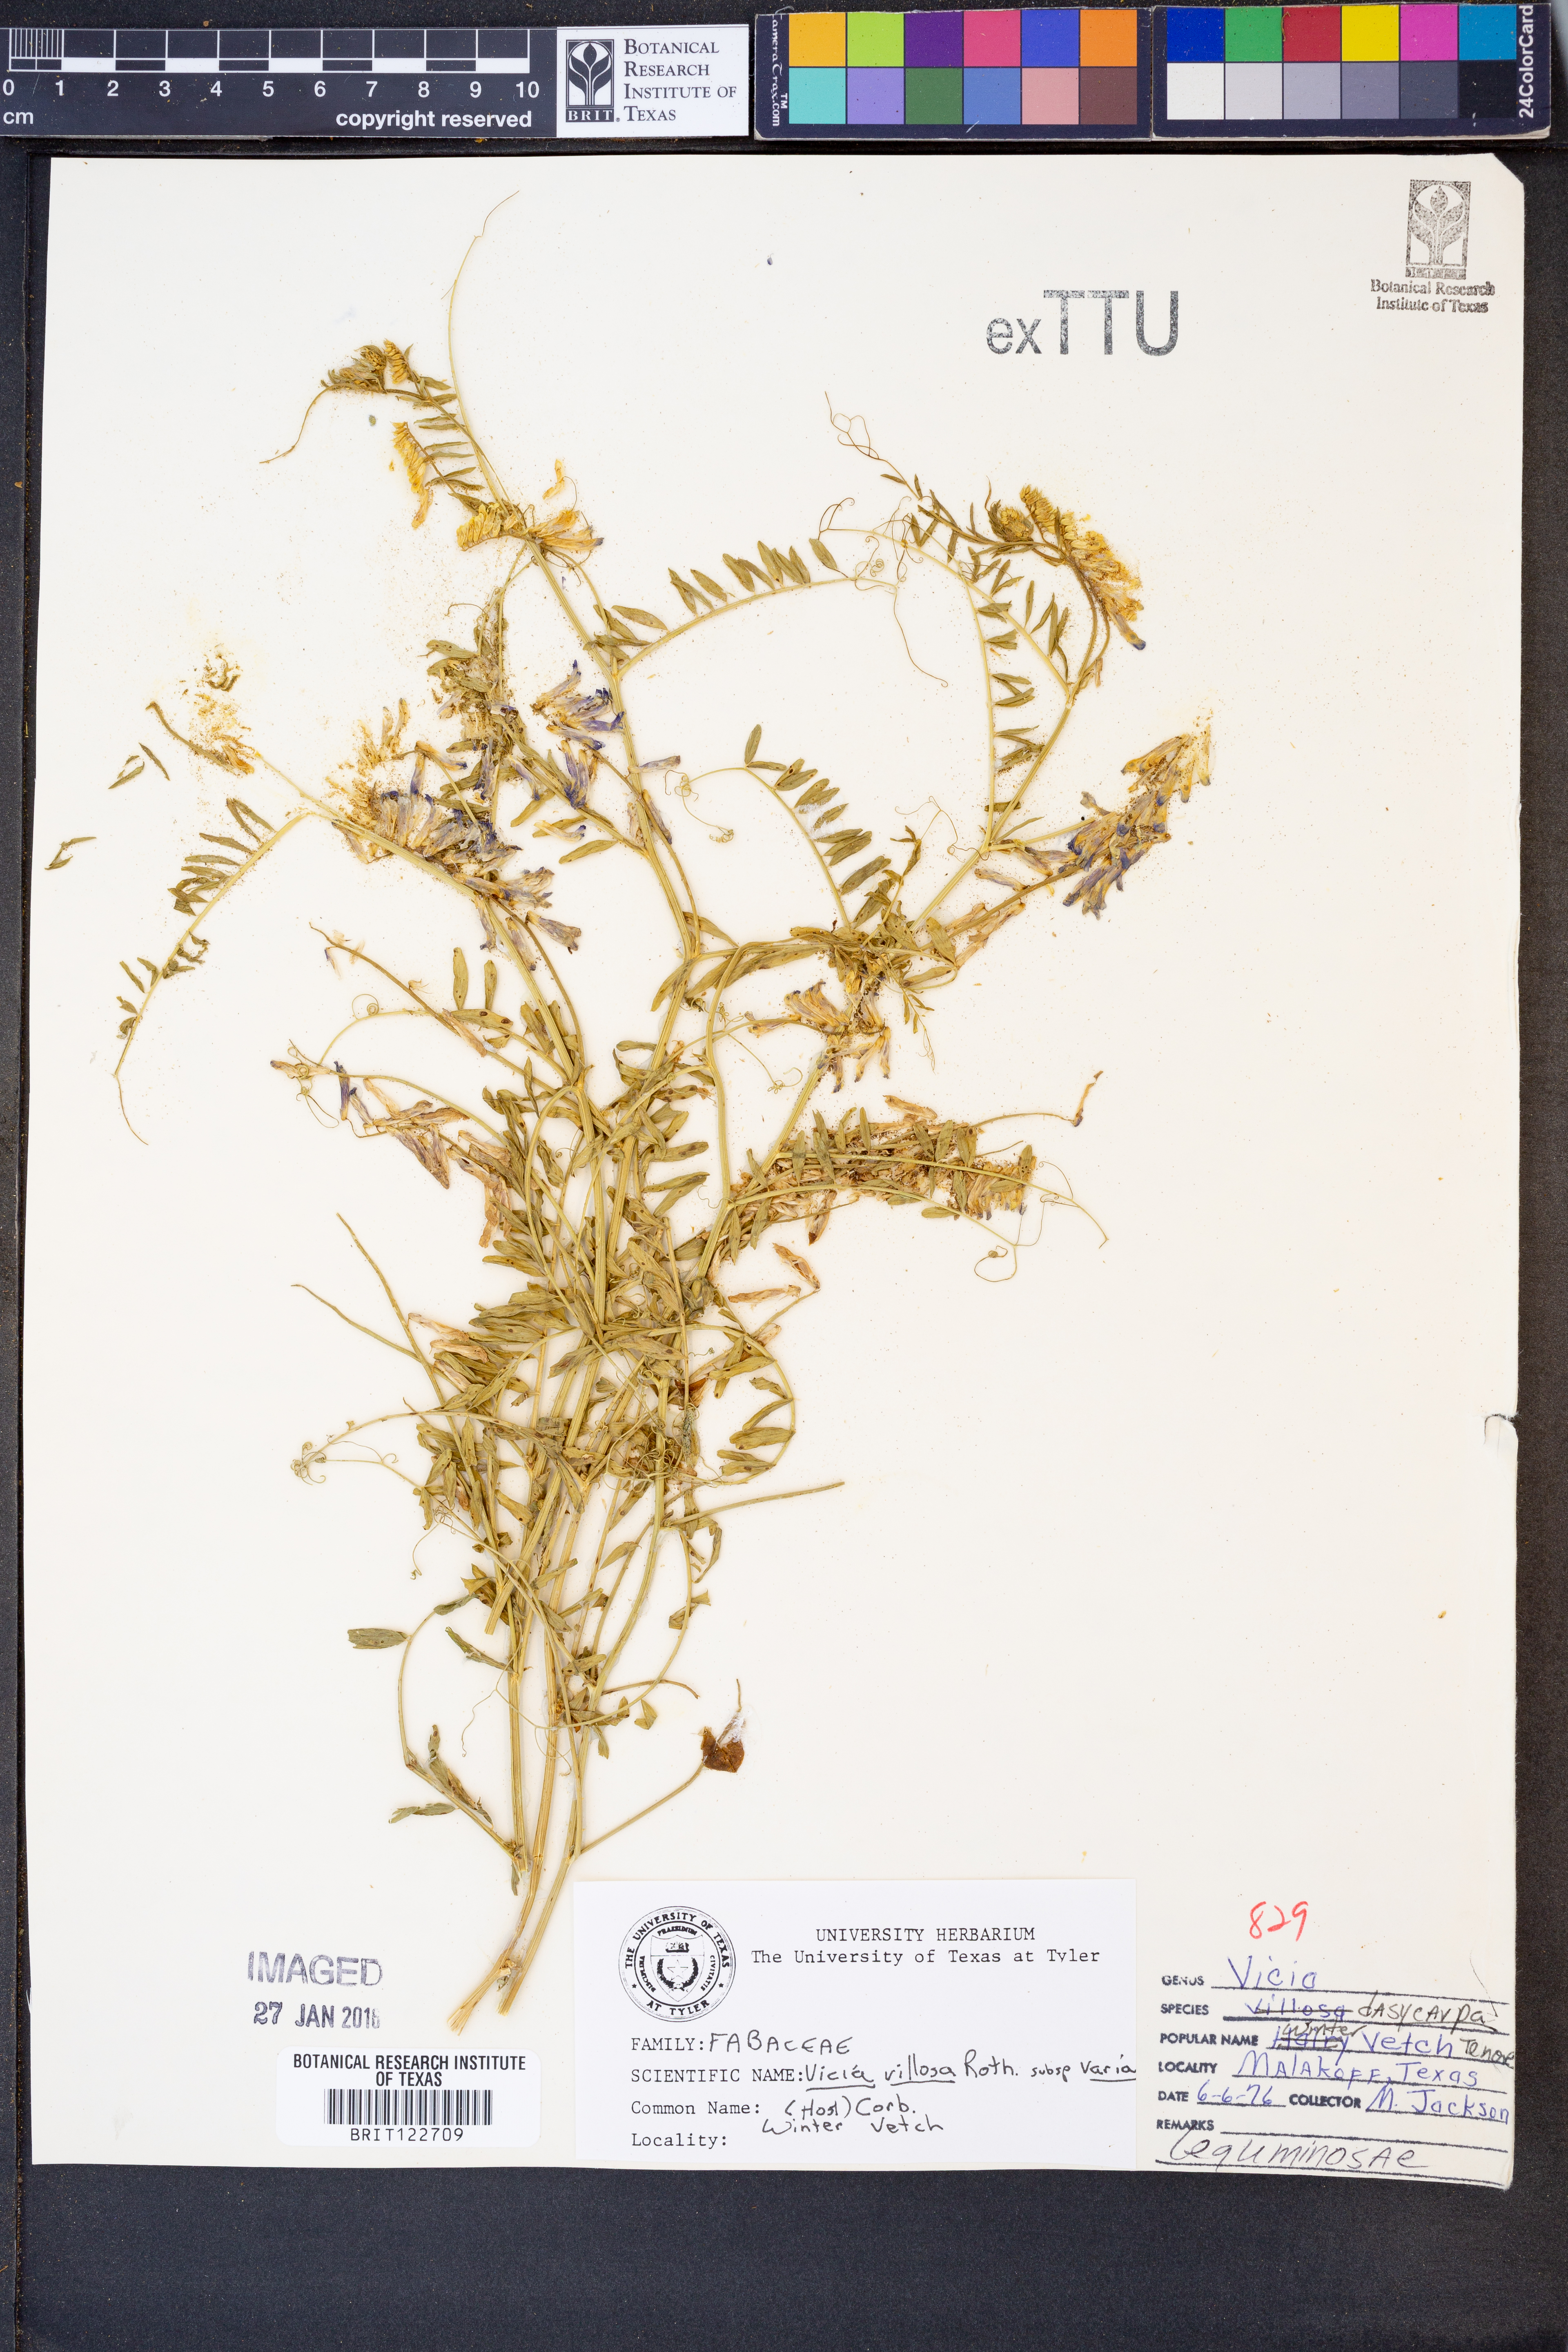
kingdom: Plantae
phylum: Tracheophyta
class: Magnoliopsida
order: Fabales
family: Fabaceae
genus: Vicia
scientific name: Vicia villosa
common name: Fodder vetch
